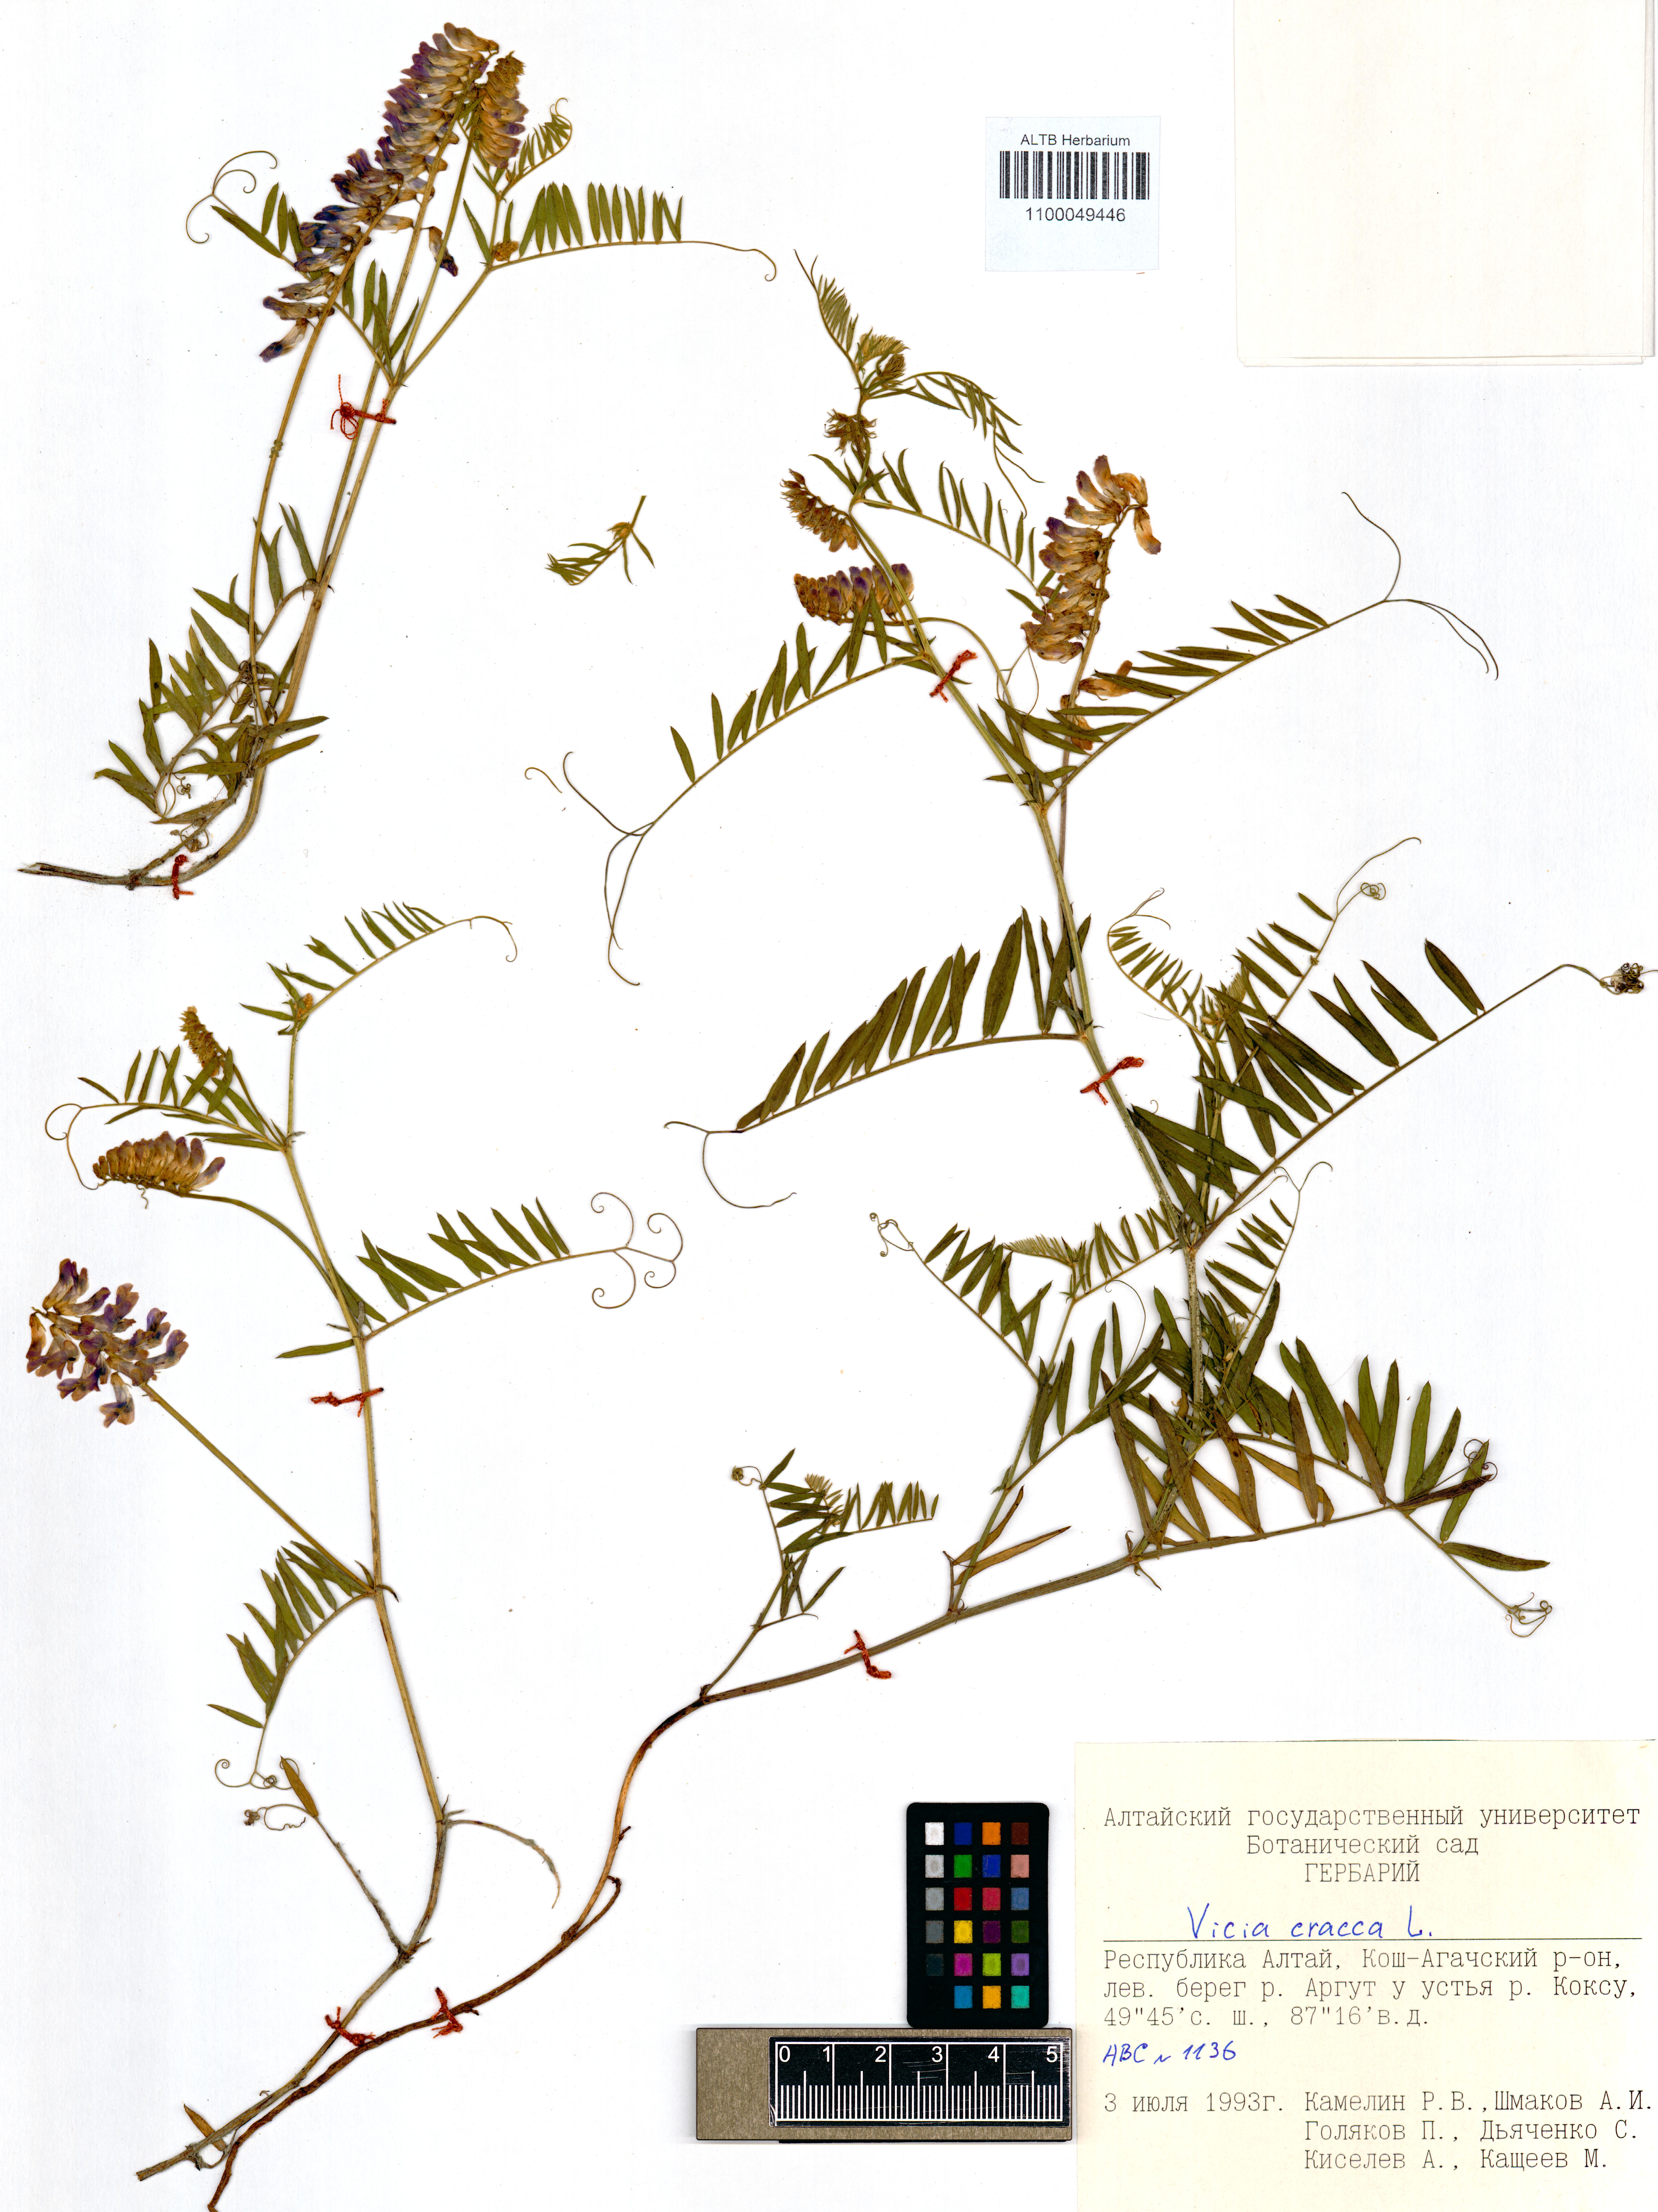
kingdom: Plantae
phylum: Tracheophyta
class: Magnoliopsida
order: Fabales
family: Fabaceae
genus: Vicia
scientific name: Vicia cracca
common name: Bird vetch
